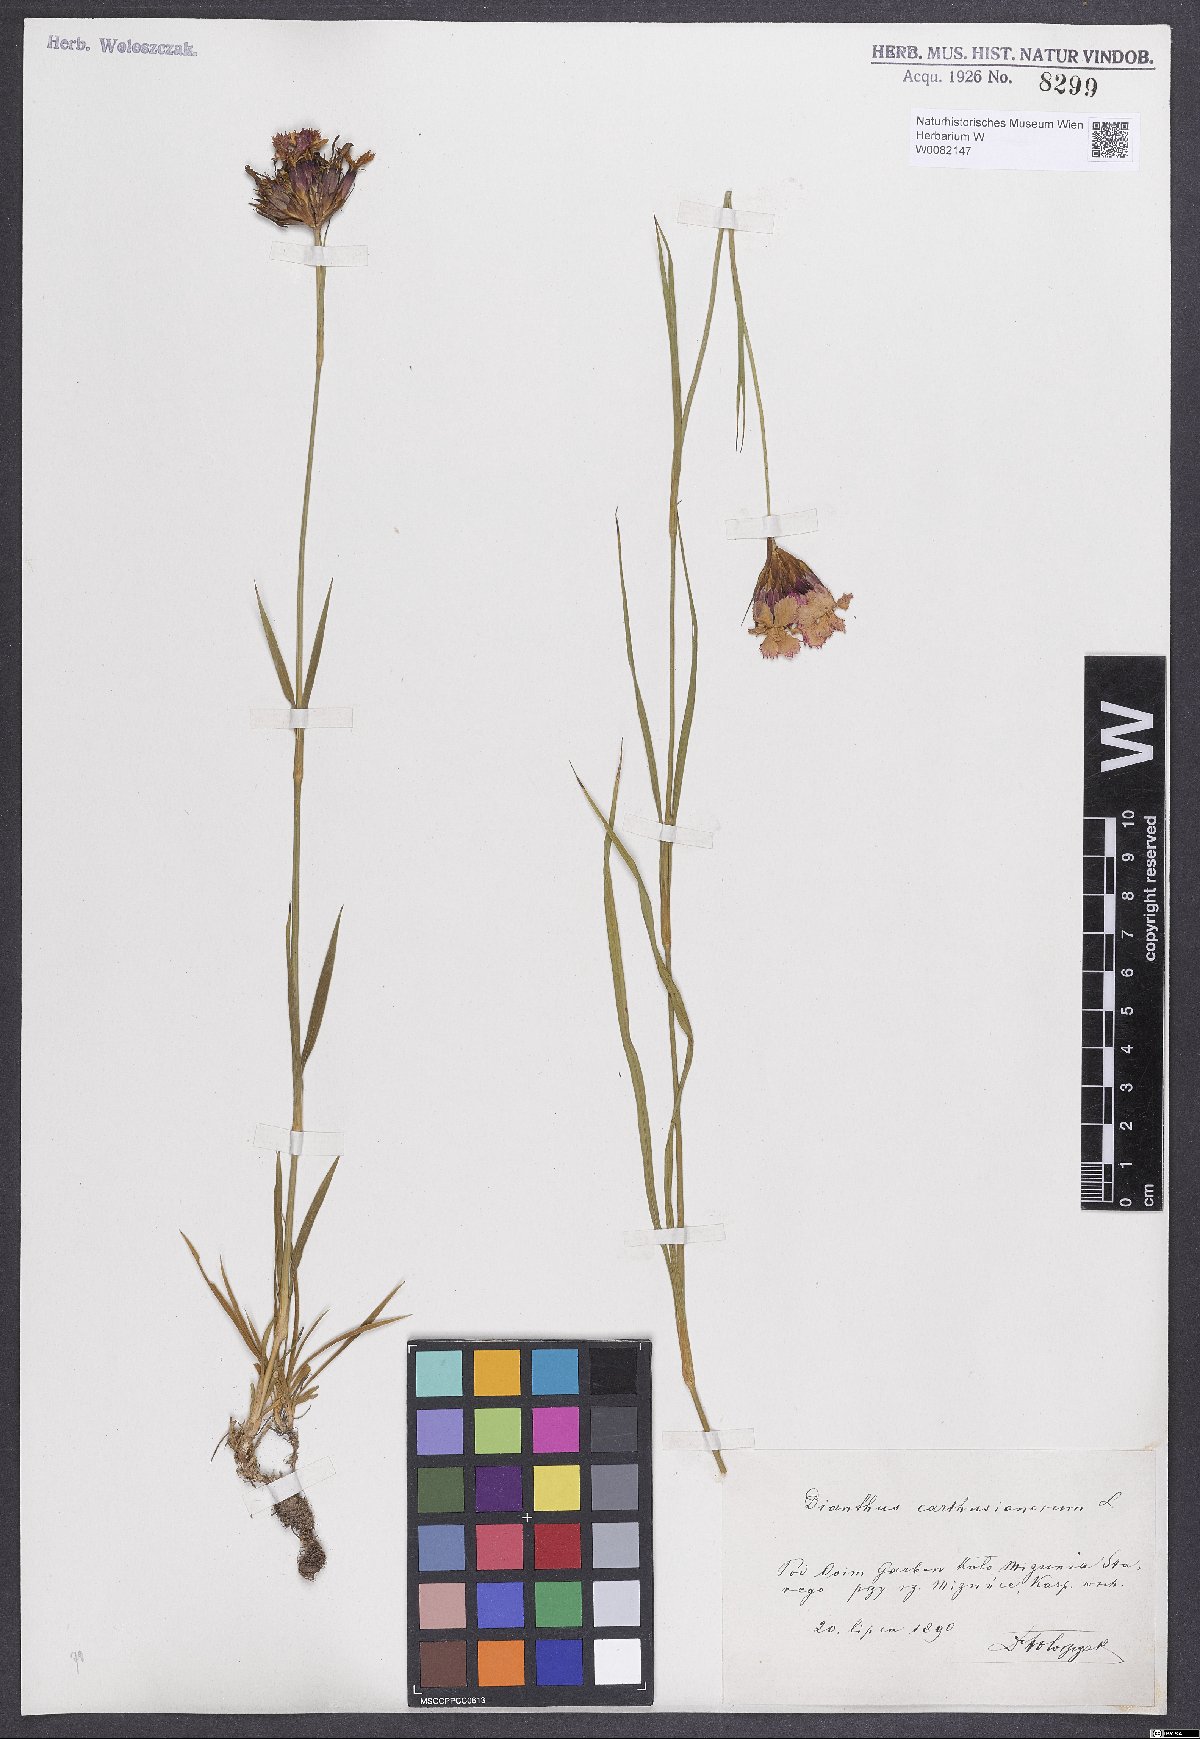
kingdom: Plantae
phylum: Tracheophyta
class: Magnoliopsida
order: Caryophyllales
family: Caryophyllaceae
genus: Dianthus
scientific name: Dianthus carthusianorum
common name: Carthusian pink
